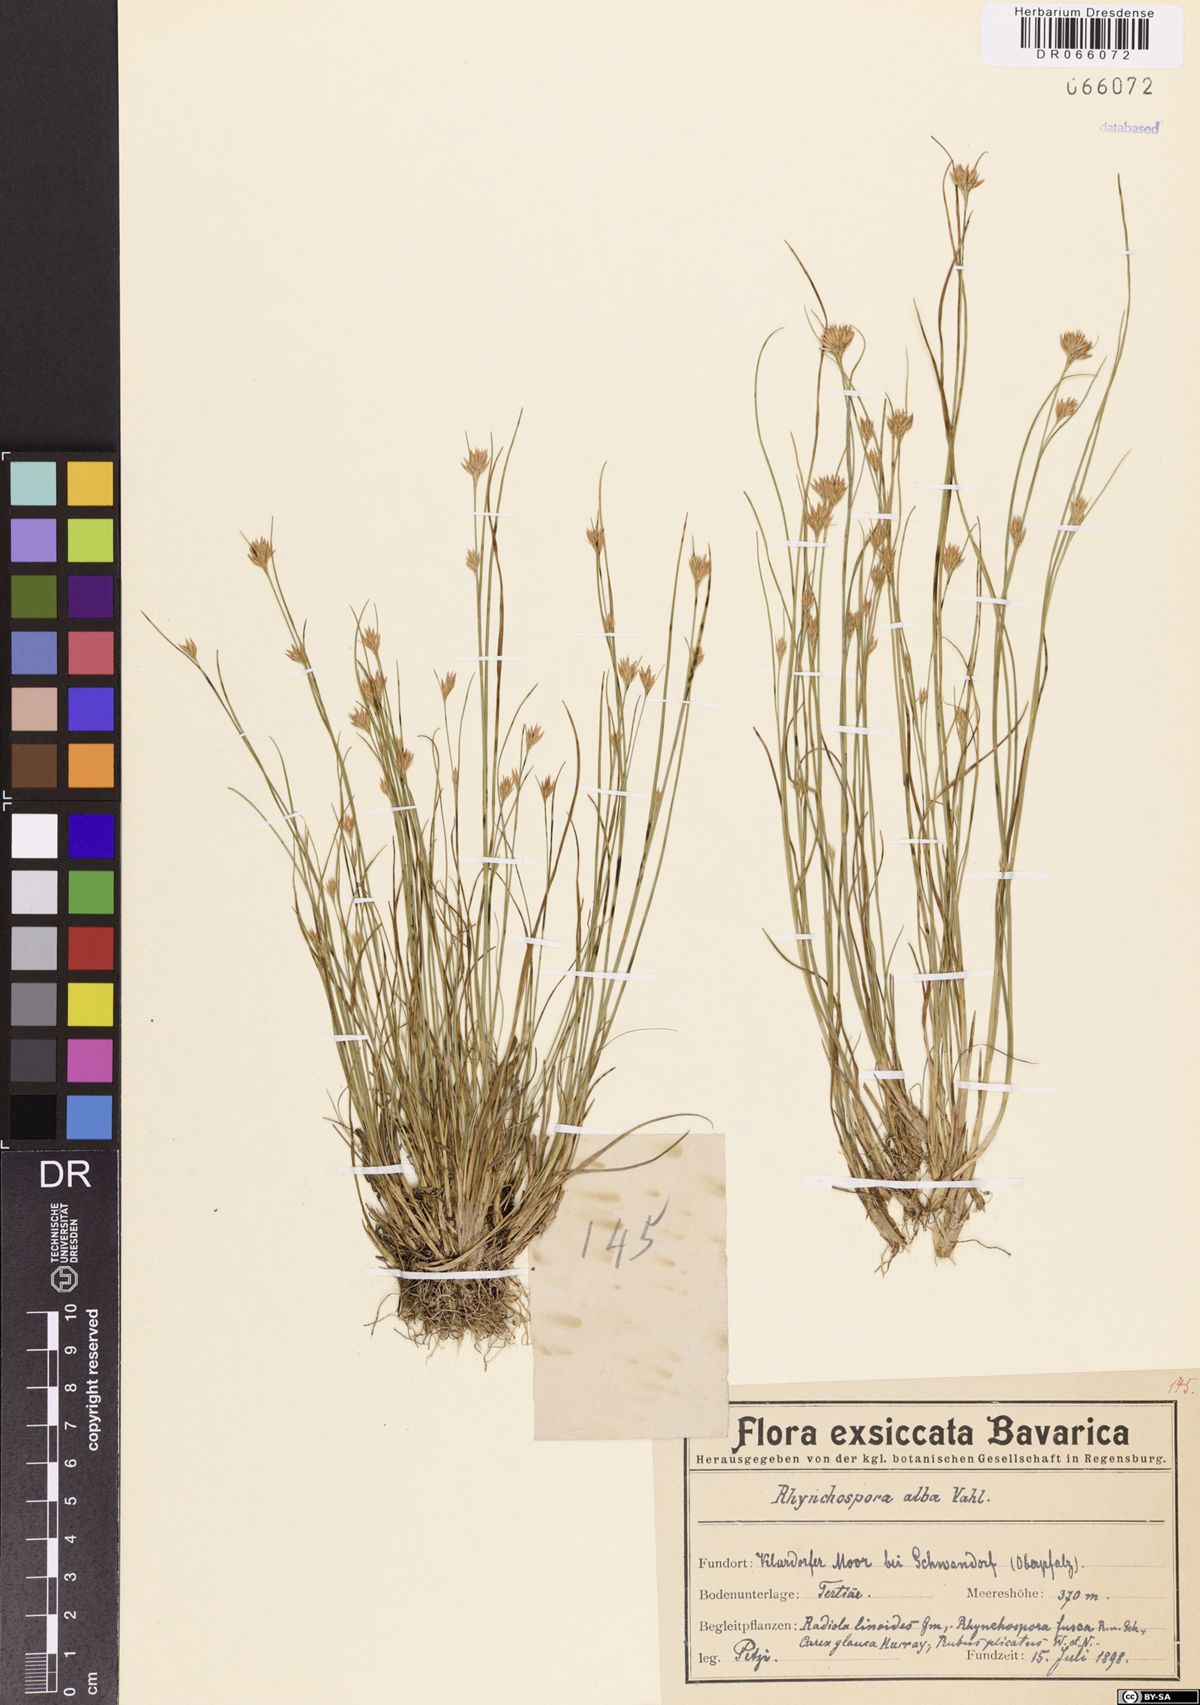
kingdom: Plantae
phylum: Tracheophyta
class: Liliopsida
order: Poales
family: Cyperaceae
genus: Rhynchospora
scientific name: Rhynchospora alba
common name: White beak-sedge
